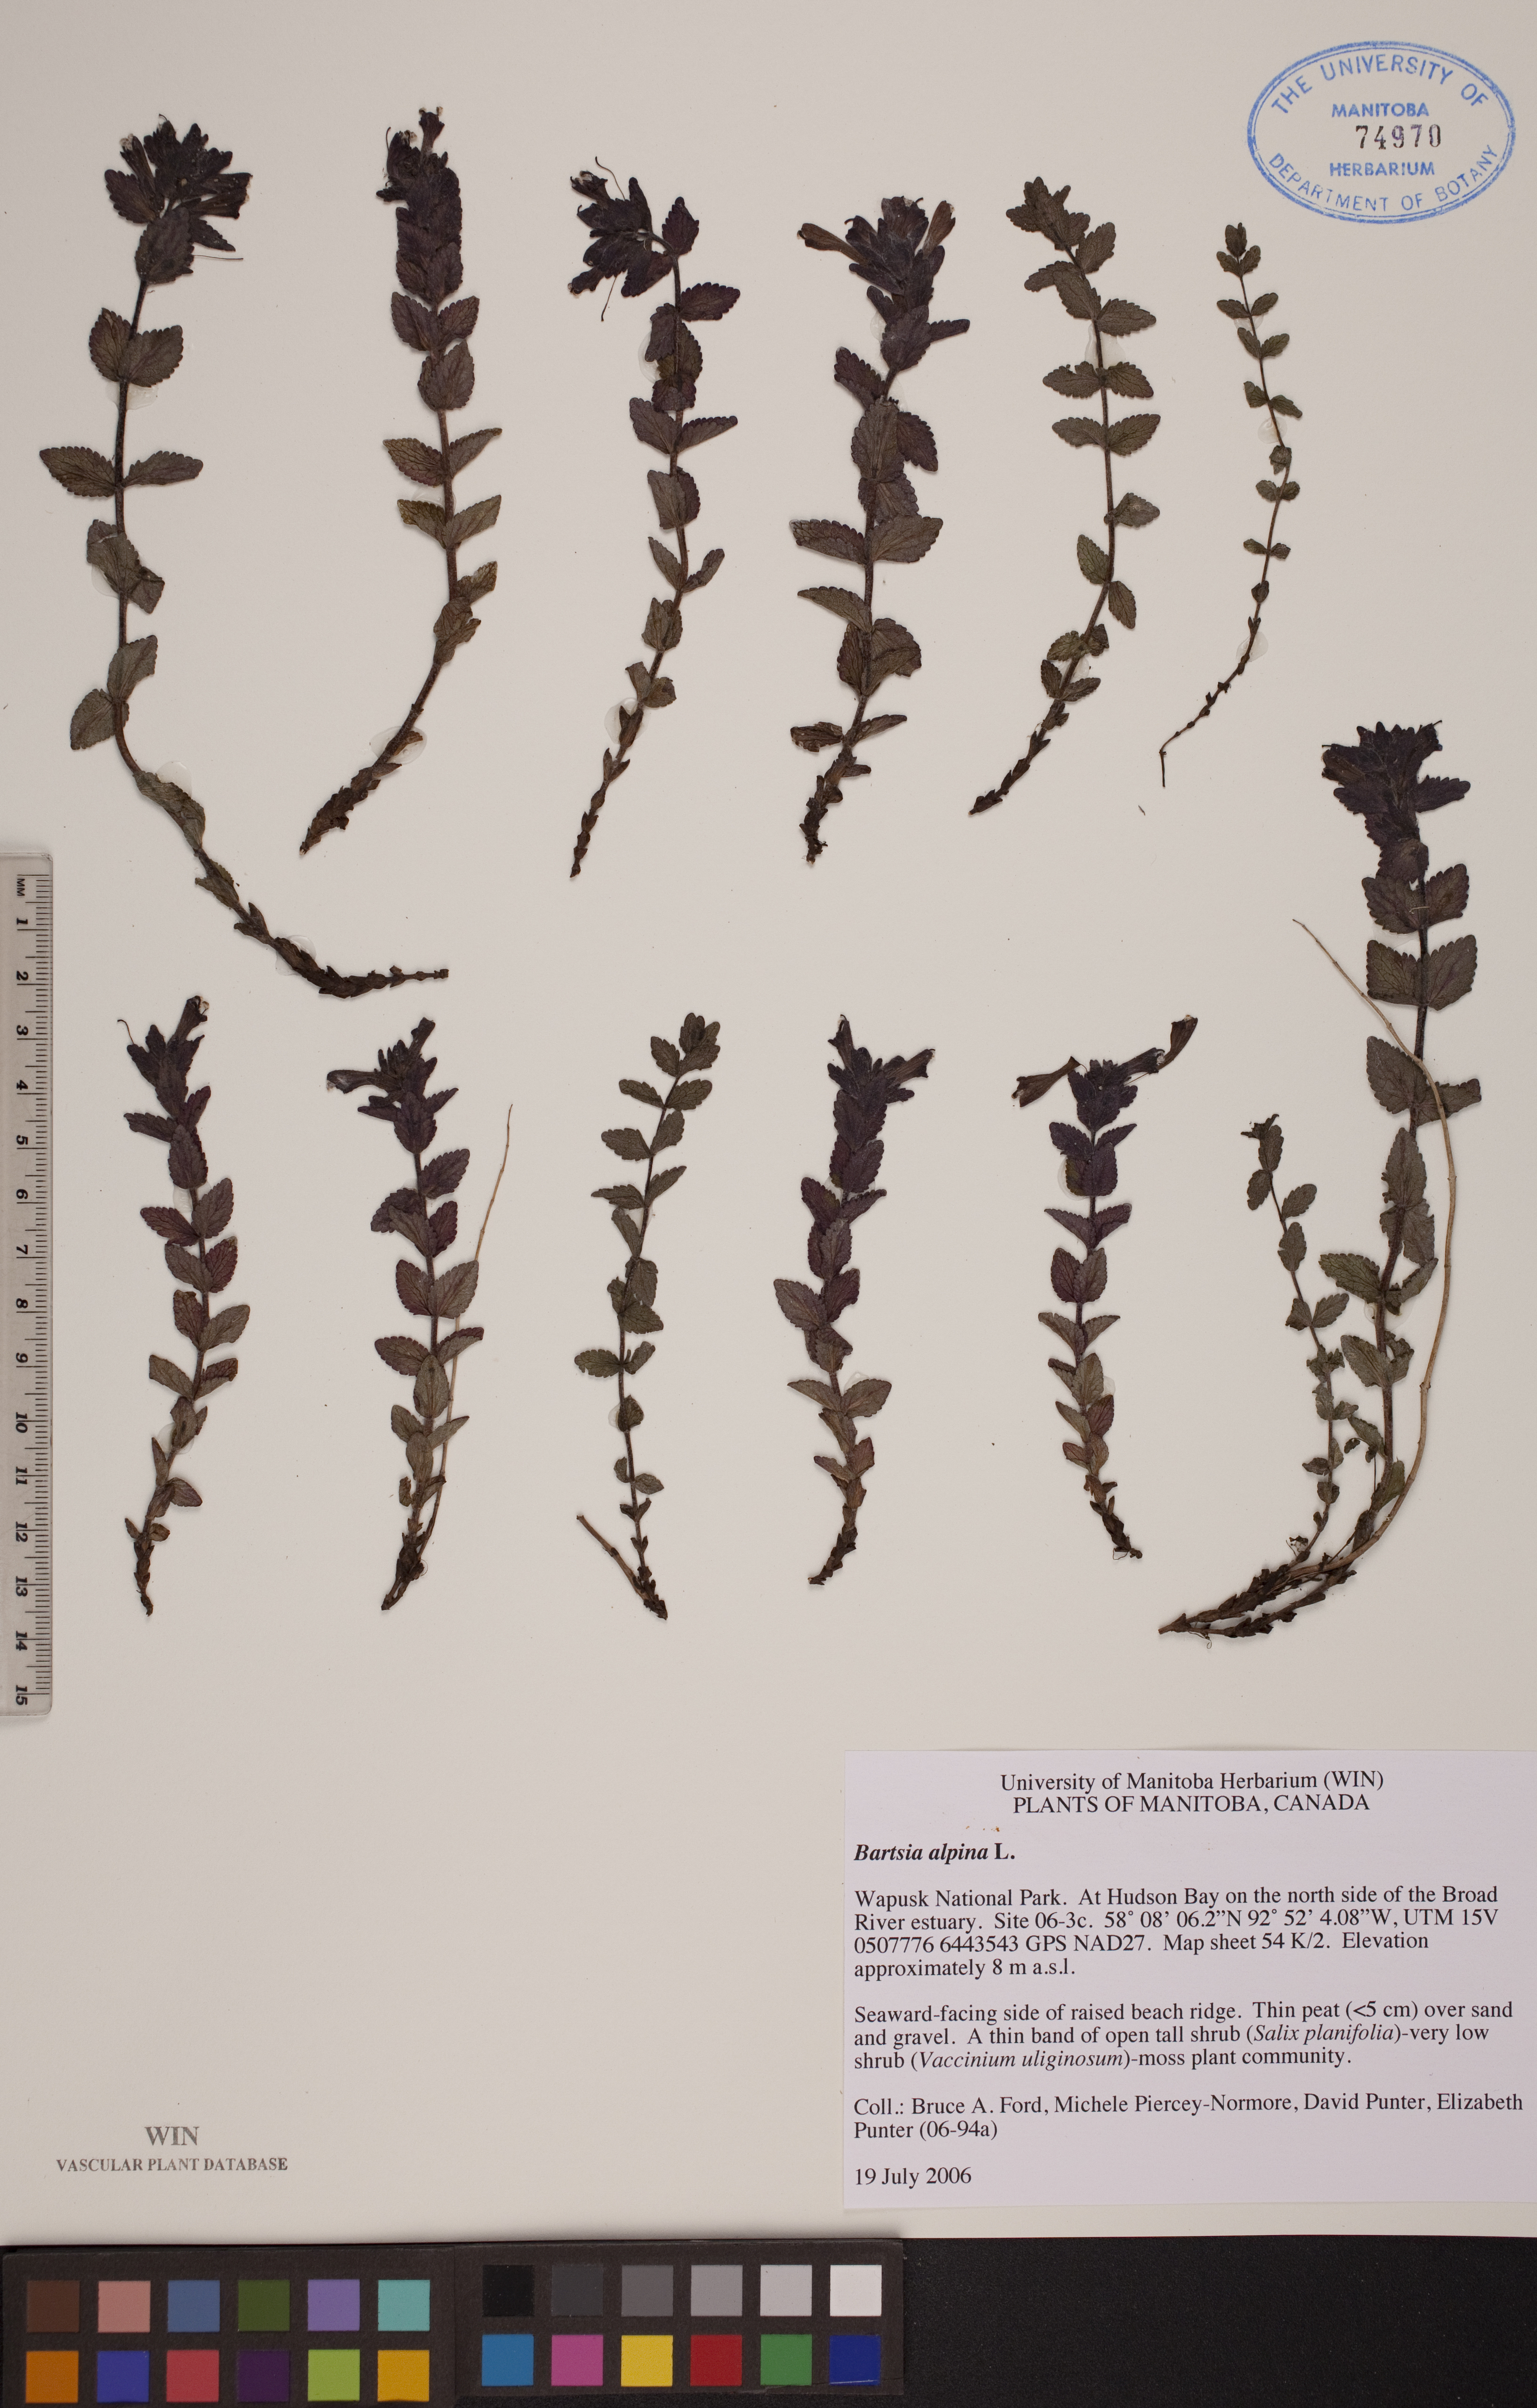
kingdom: Plantae
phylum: Tracheophyta
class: Magnoliopsida
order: Lamiales
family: Orobanchaceae
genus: Bartsia
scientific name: Bartsia alpina
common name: Alpine bartsia
